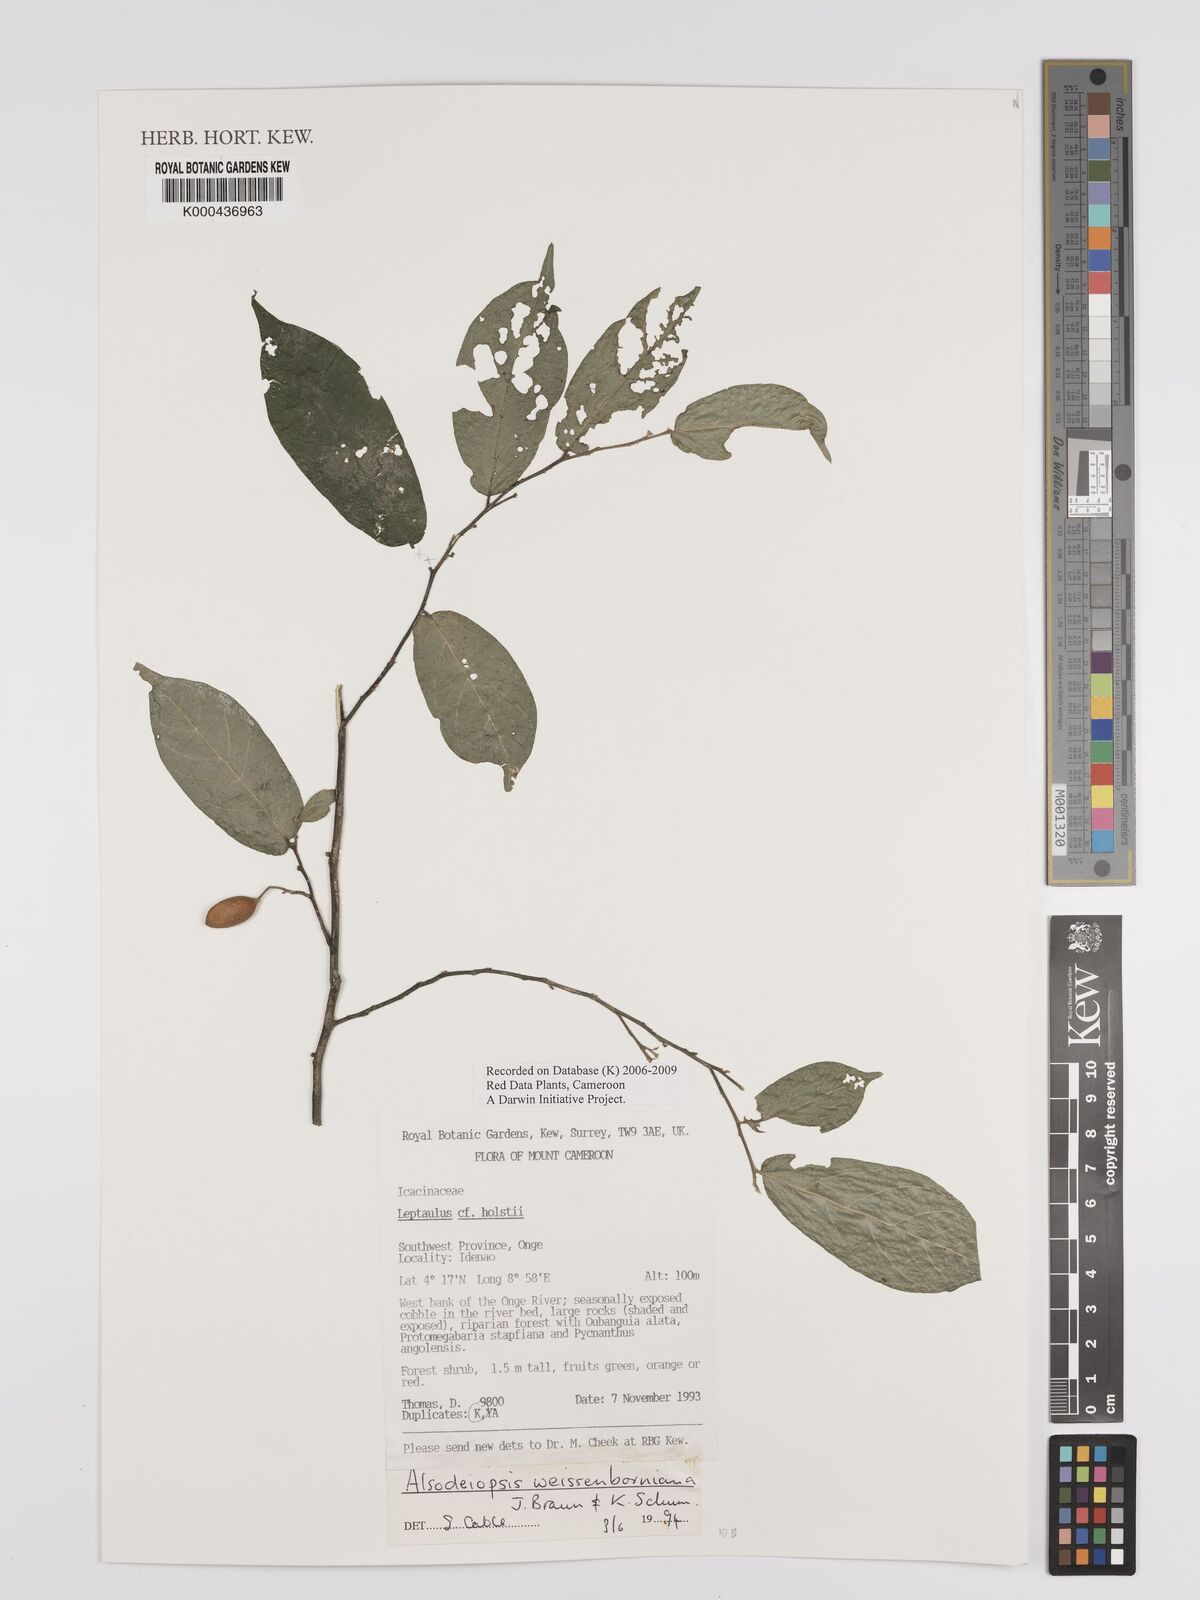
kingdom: Plantae
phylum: Tracheophyta
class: Magnoliopsida
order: Icacinales
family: Icacinaceae
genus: Alsodeiopsis
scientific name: Alsodeiopsis mannii
